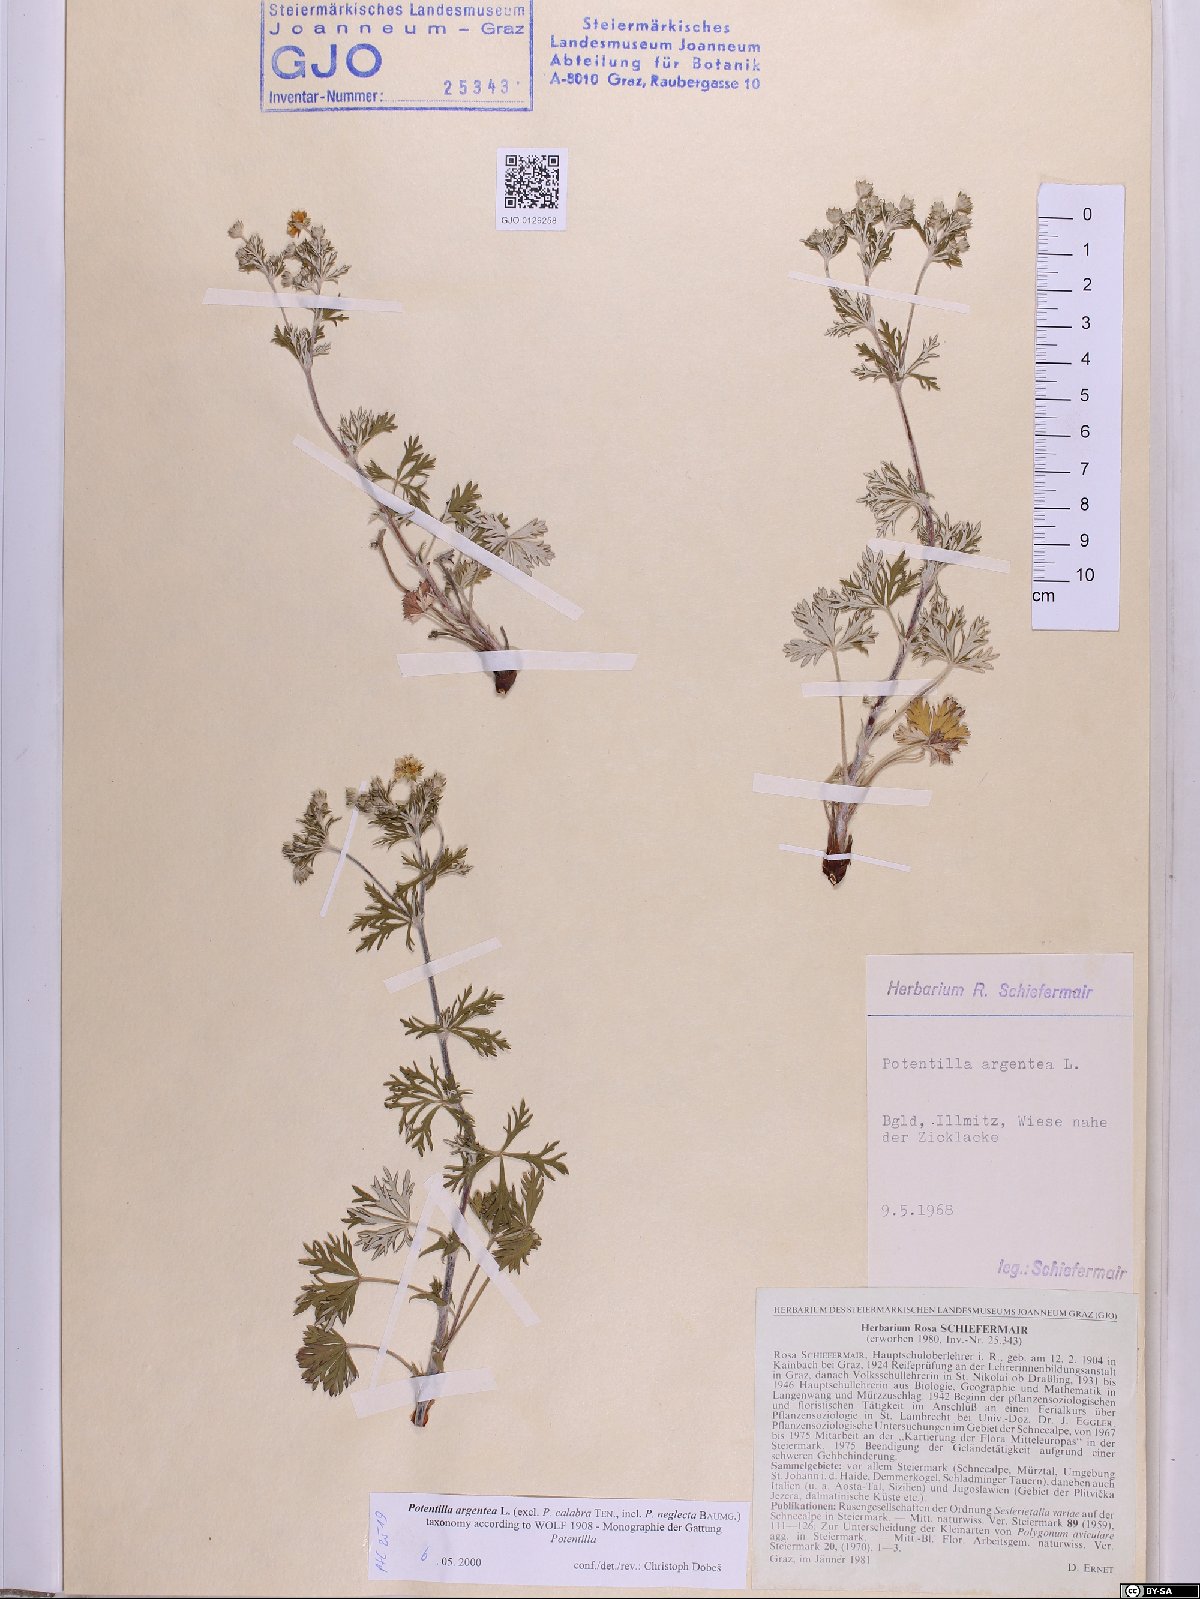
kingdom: Plantae
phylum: Tracheophyta
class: Magnoliopsida
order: Rosales
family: Rosaceae
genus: Potentilla
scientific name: Potentilla argentea
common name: Hoary cinquefoil
